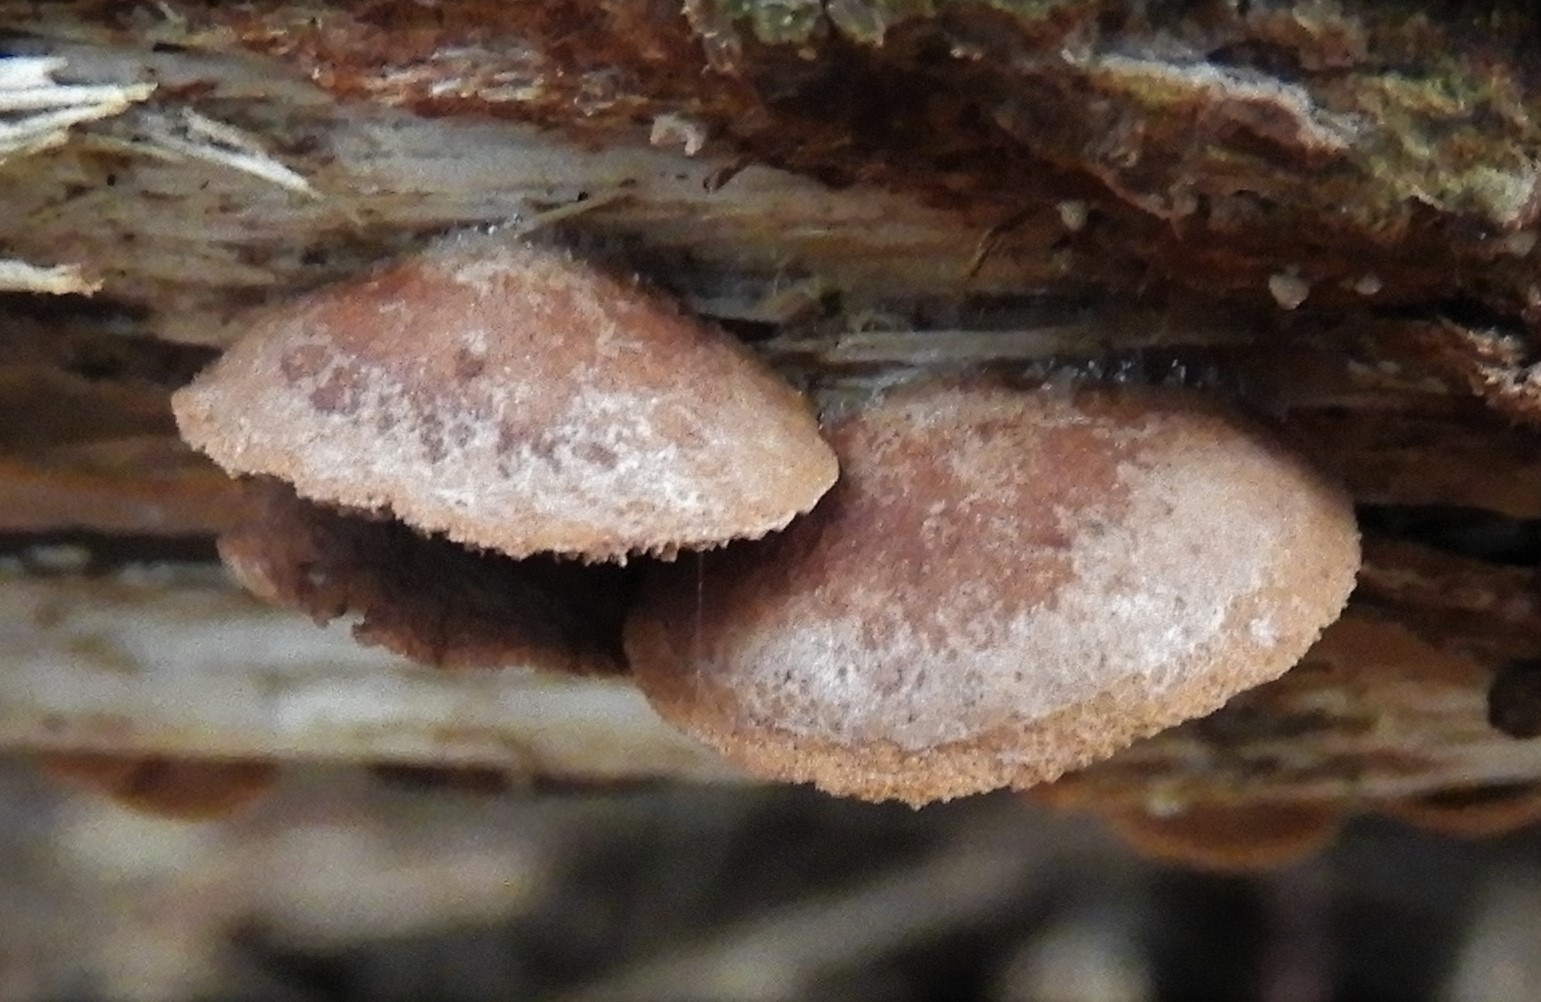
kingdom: Fungi
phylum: Basidiomycota
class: Agaricomycetes
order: Agaricales
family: Strophariaceae
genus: Deconica
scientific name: Deconica horizontalis
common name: ved-stråhat
